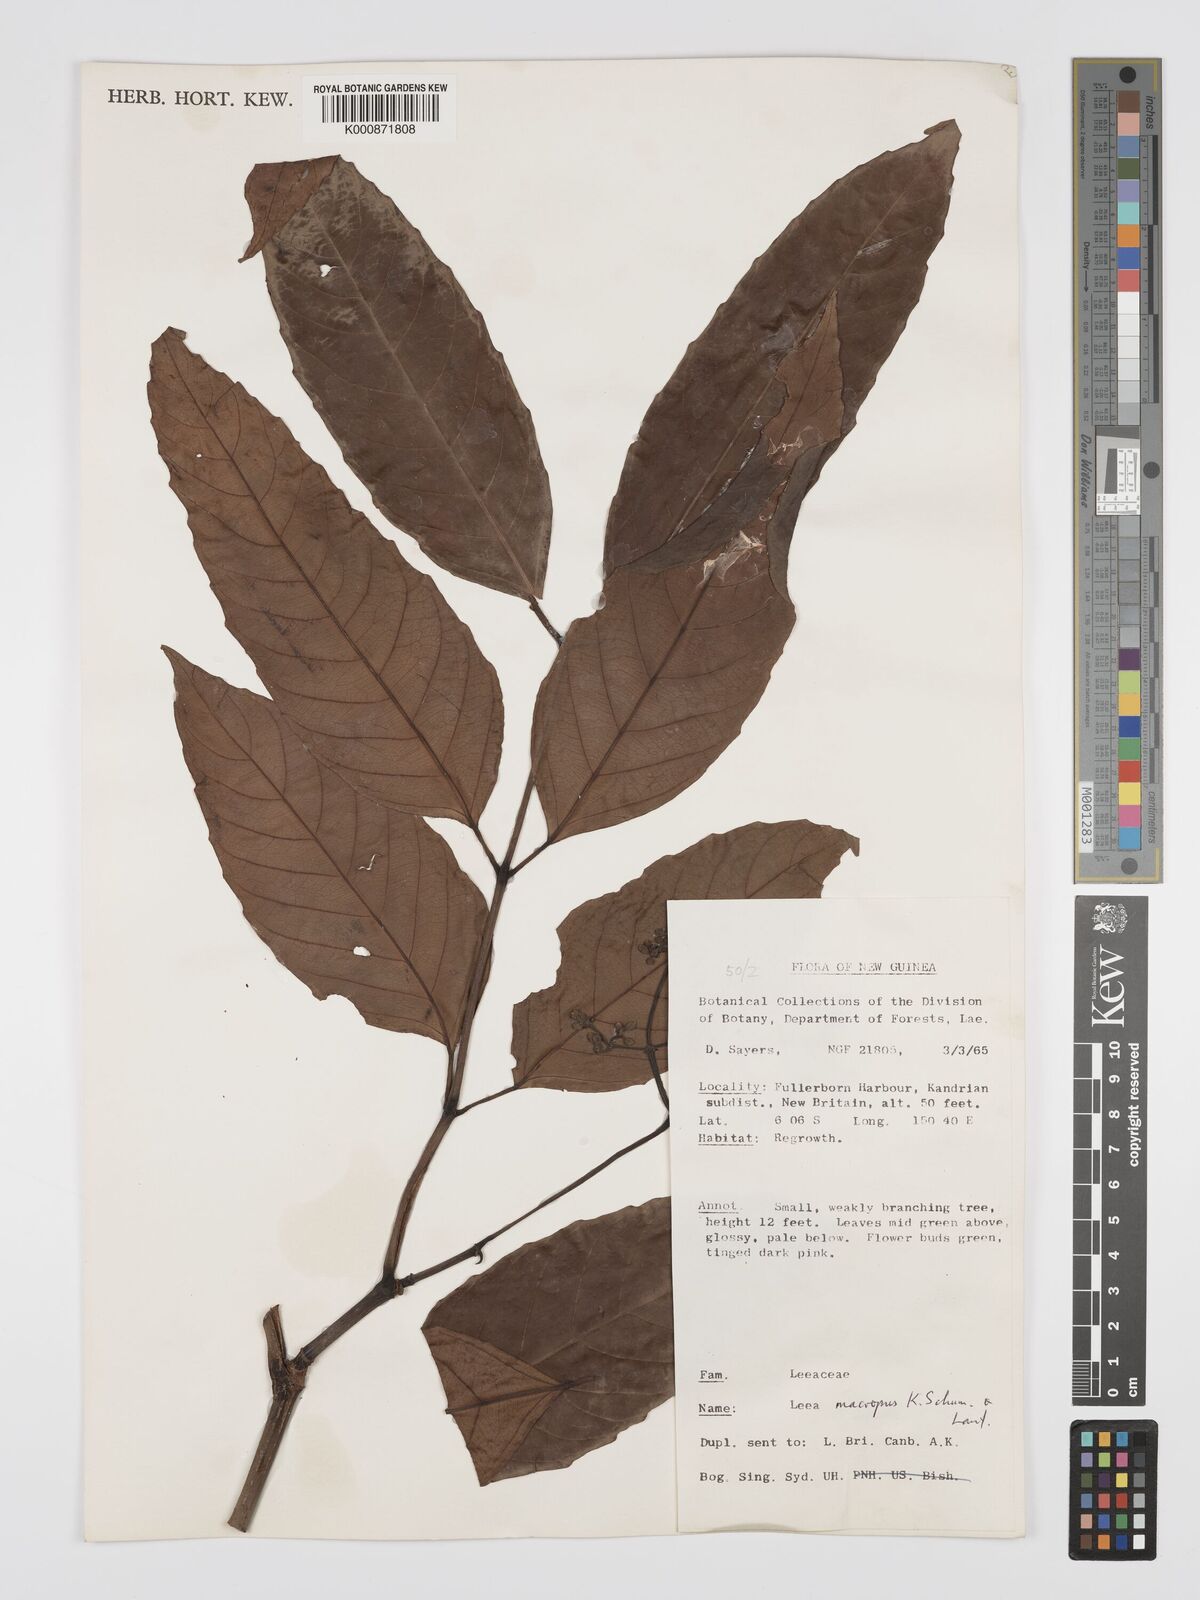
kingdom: Plantae
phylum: Tracheophyta
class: Magnoliopsida
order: Vitales
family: Vitaceae
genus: Leea
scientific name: Leea macropus
